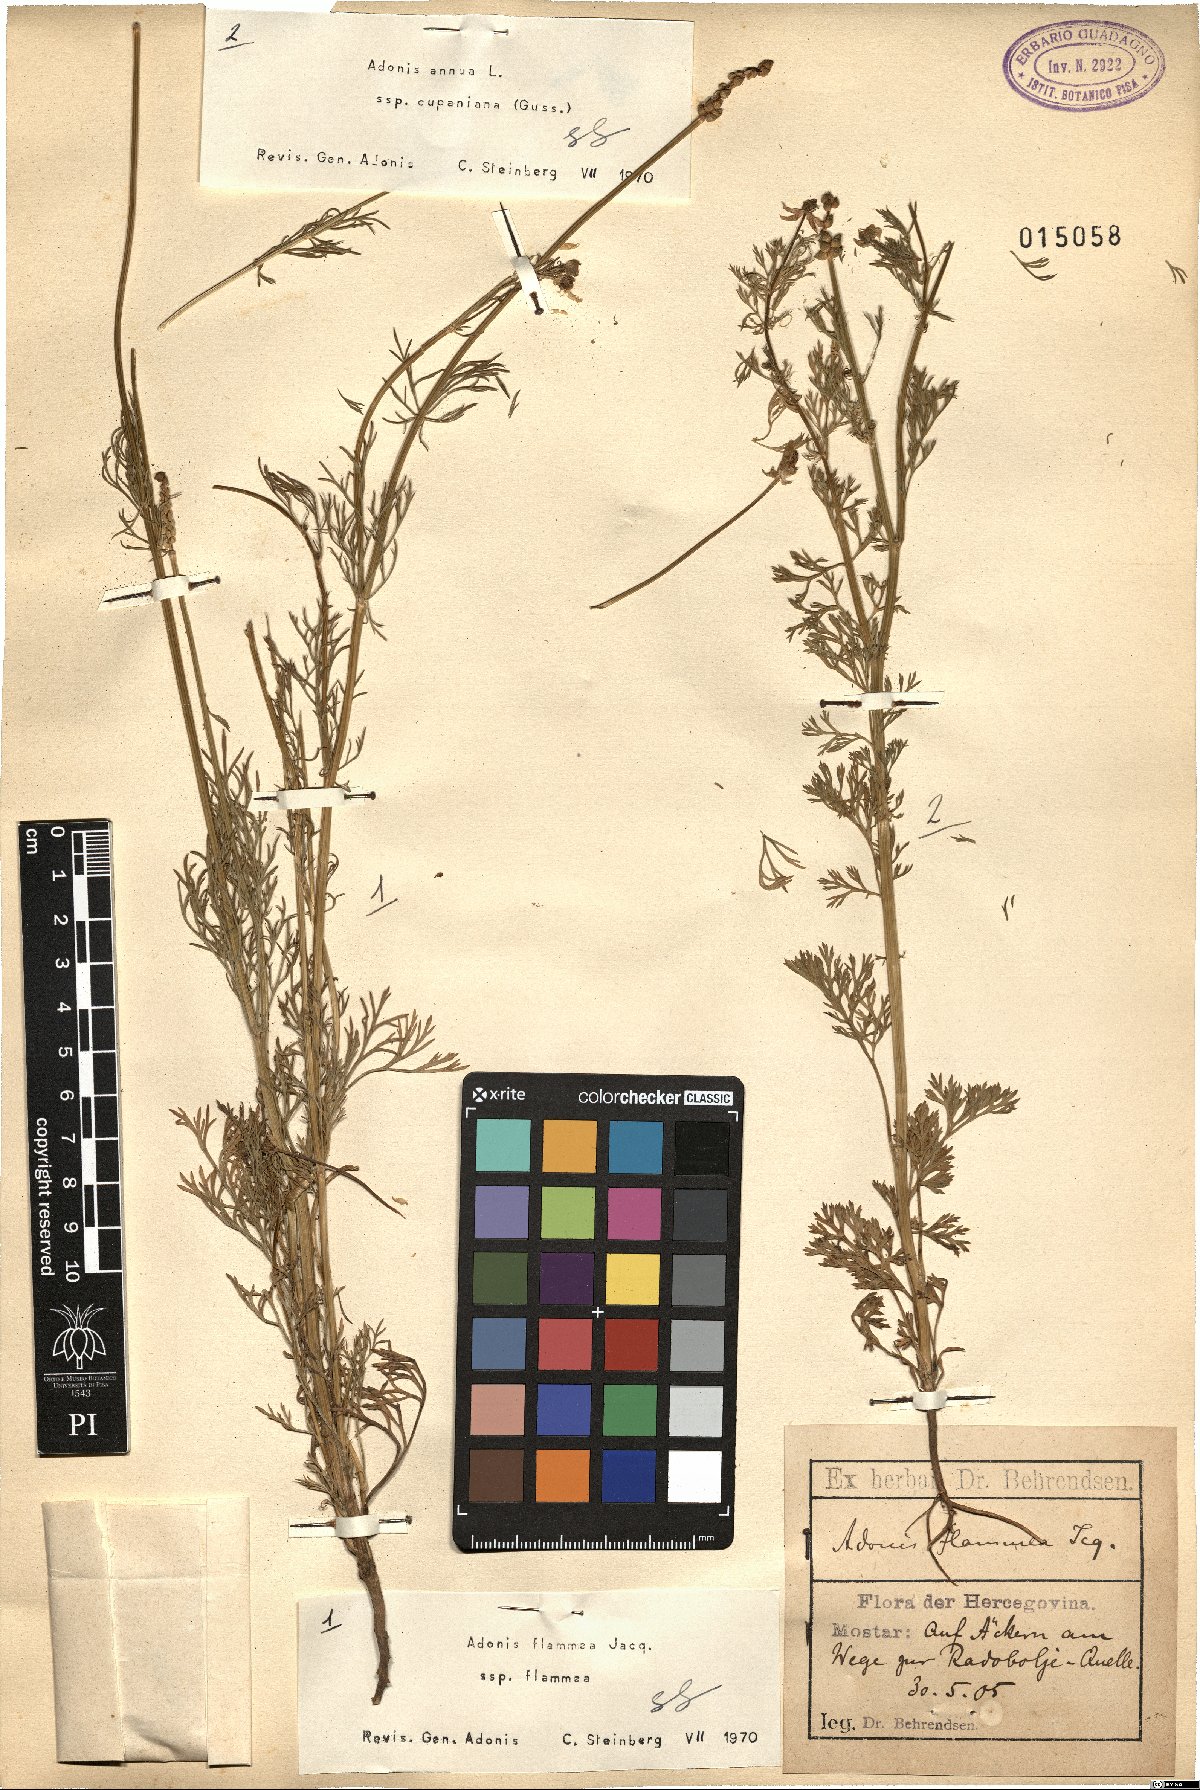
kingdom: Plantae
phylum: Tracheophyta
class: Magnoliopsida
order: Ranunculales
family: Ranunculaceae
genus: Adonis
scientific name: Adonis annua
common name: Pheasant's-eye
